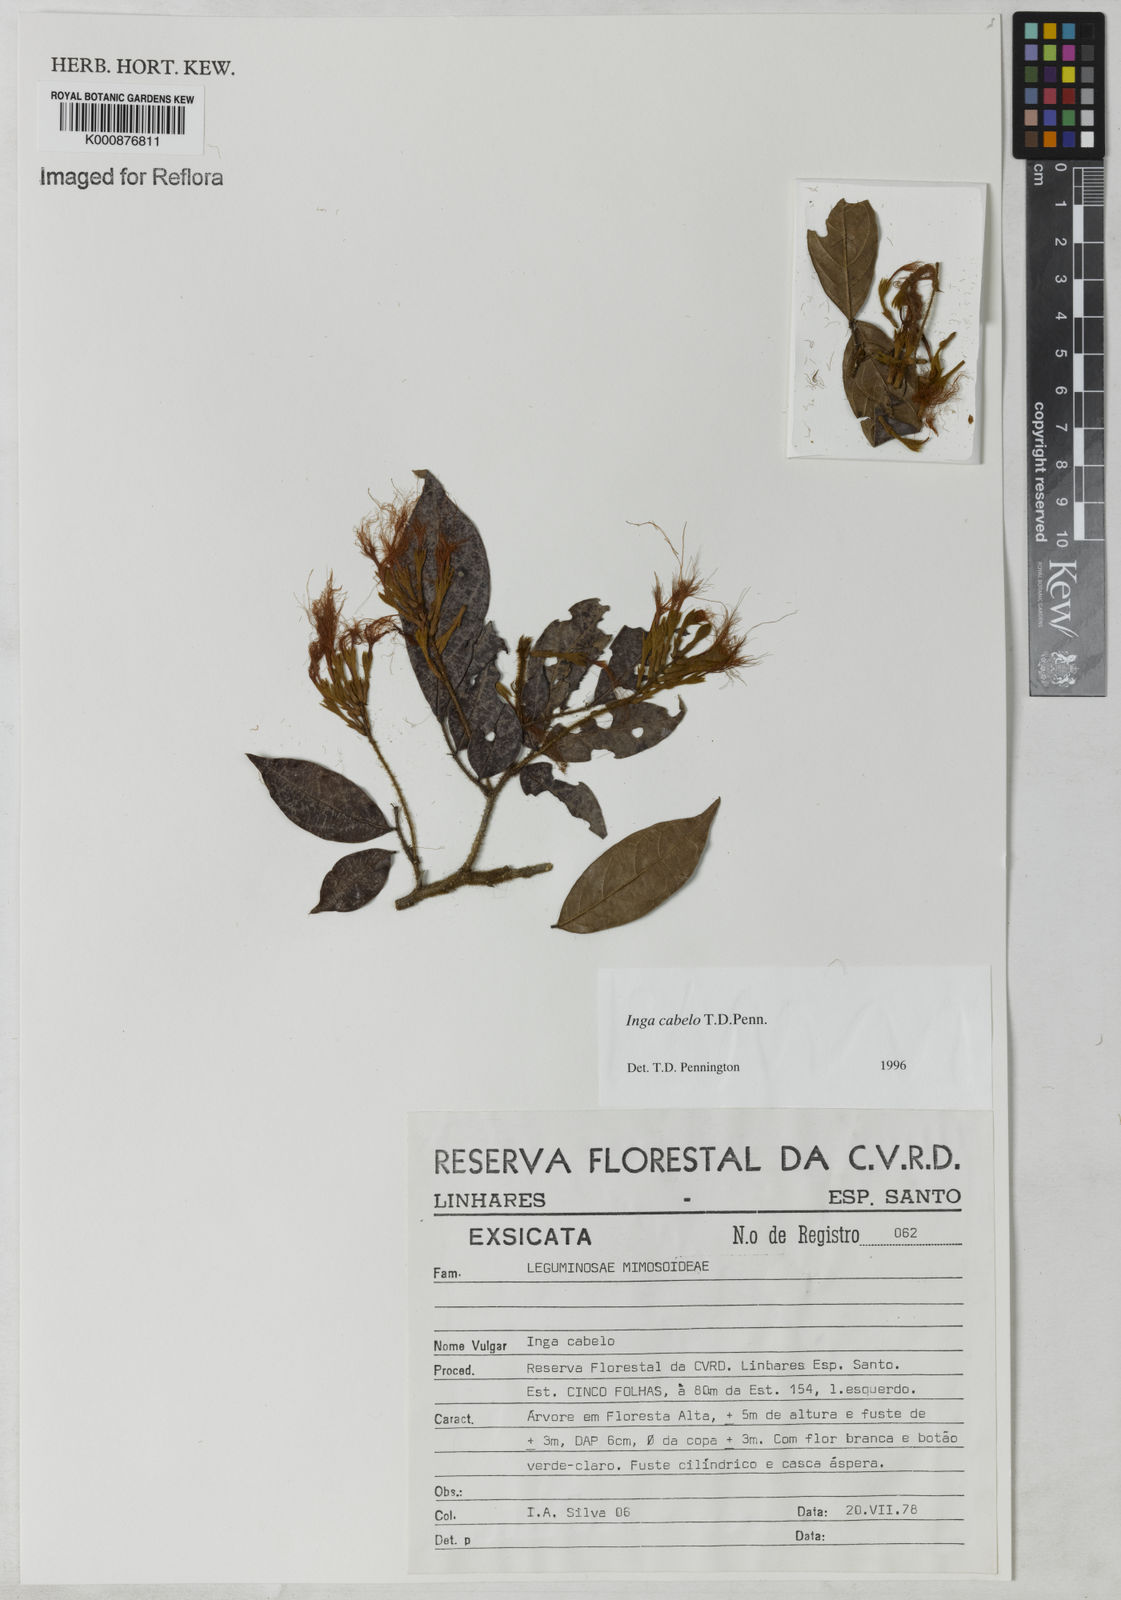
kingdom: Plantae
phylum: Tracheophyta
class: Magnoliopsida
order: Fabales
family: Fabaceae
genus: Inga
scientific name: Inga cabelo
